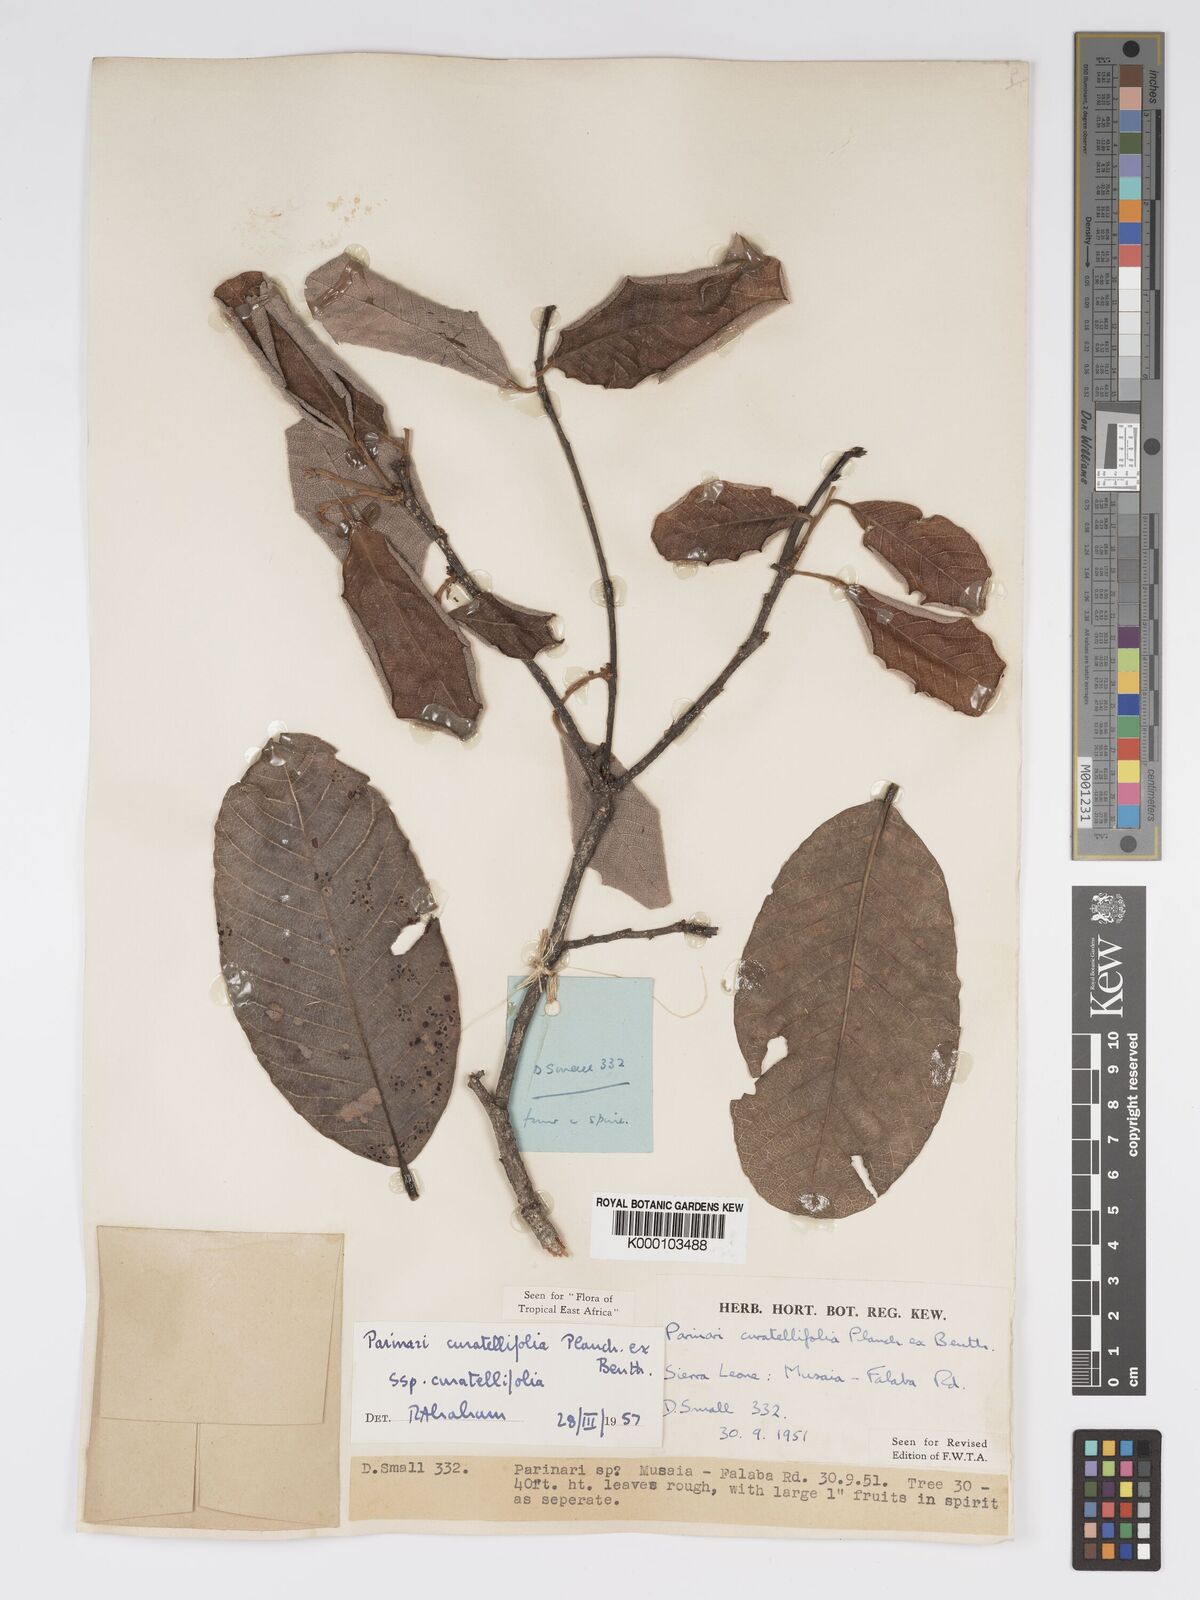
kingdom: Plantae
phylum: Tracheophyta
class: Magnoliopsida
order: Malpighiales
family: Chrysobalanaceae
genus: Parinari
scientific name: Parinari curatellifolia
